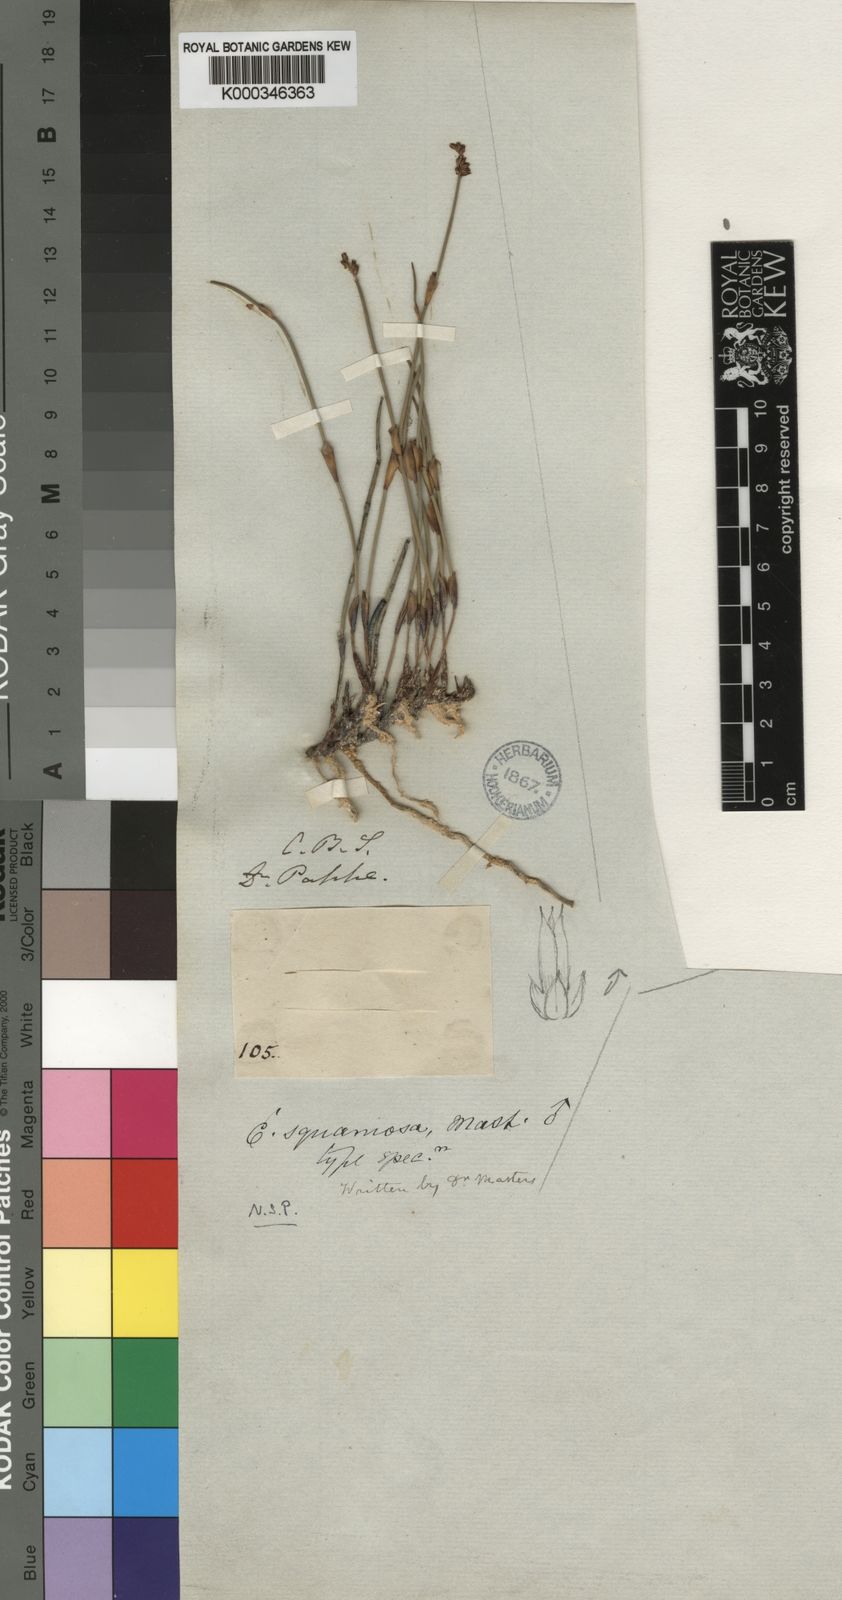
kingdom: Plantae
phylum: Tracheophyta
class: Liliopsida
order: Poales
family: Restionaceae
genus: Elegia
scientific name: Elegia squamosa
